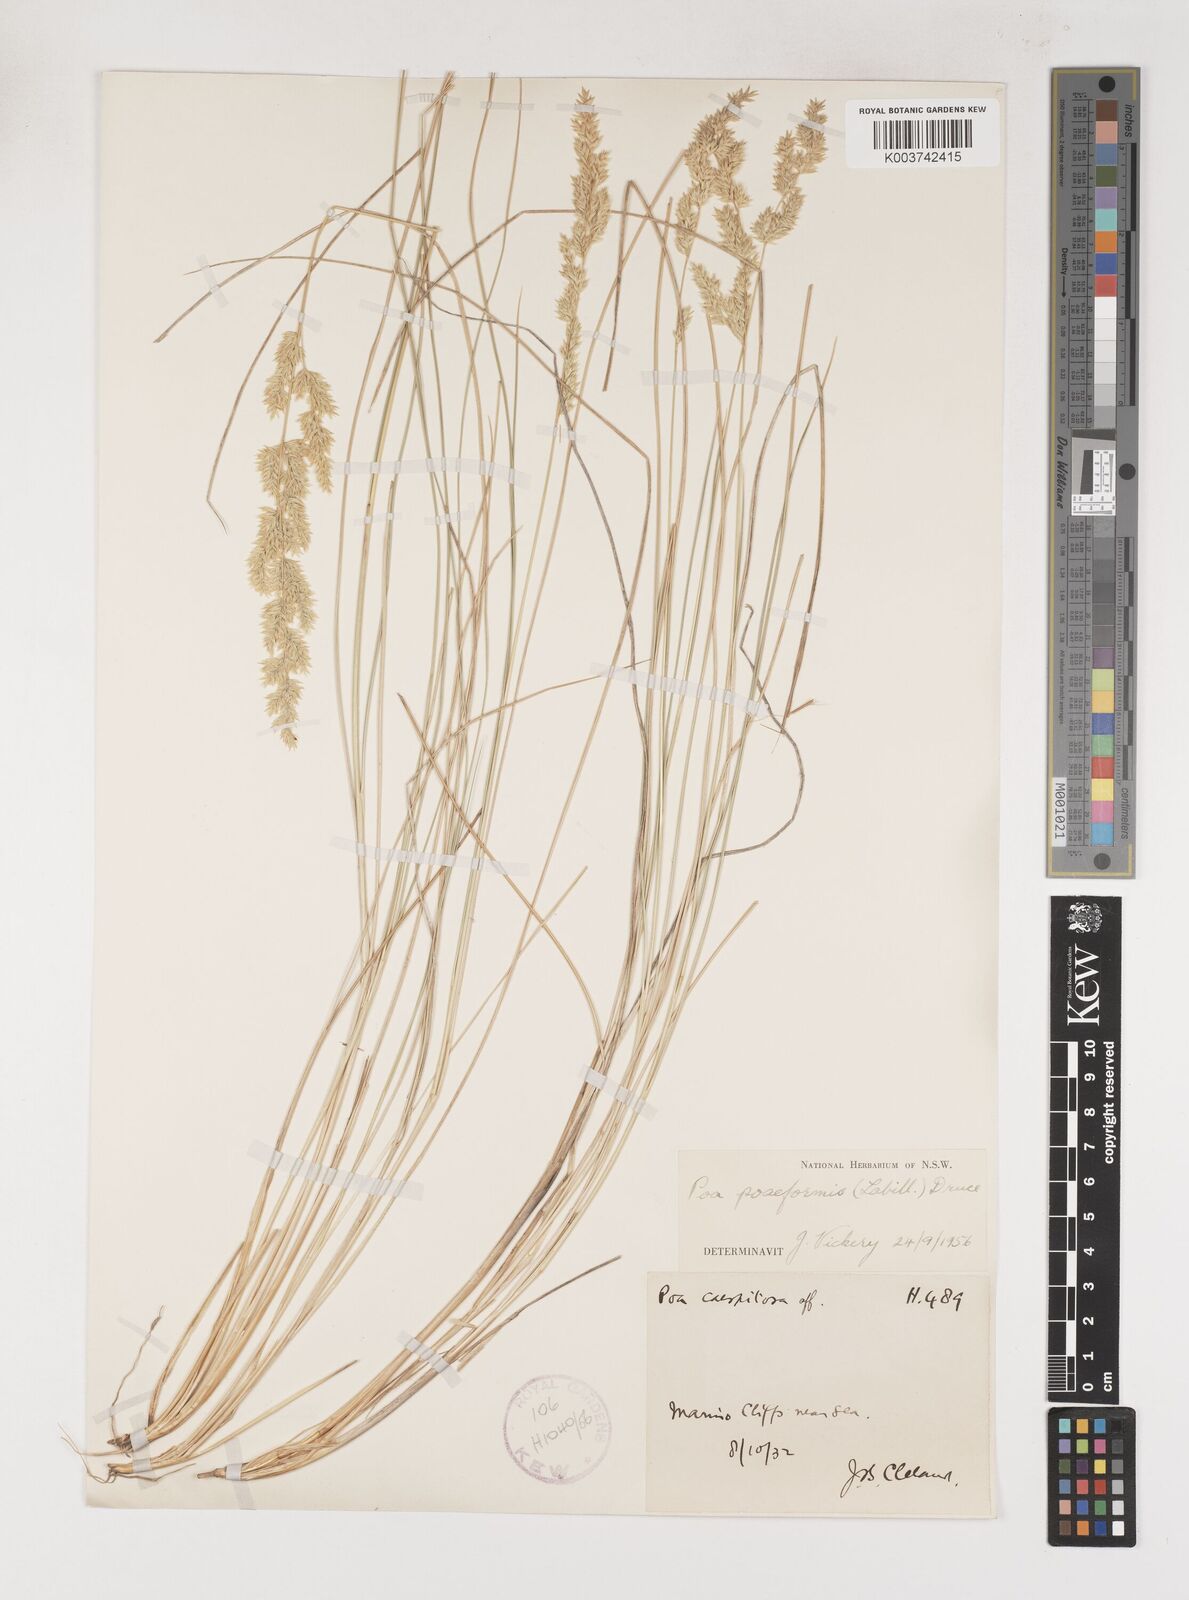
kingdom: Plantae
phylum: Tracheophyta
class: Liliopsida
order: Poales
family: Poaceae
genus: Poa
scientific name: Poa poiformis
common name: Tussock poa
